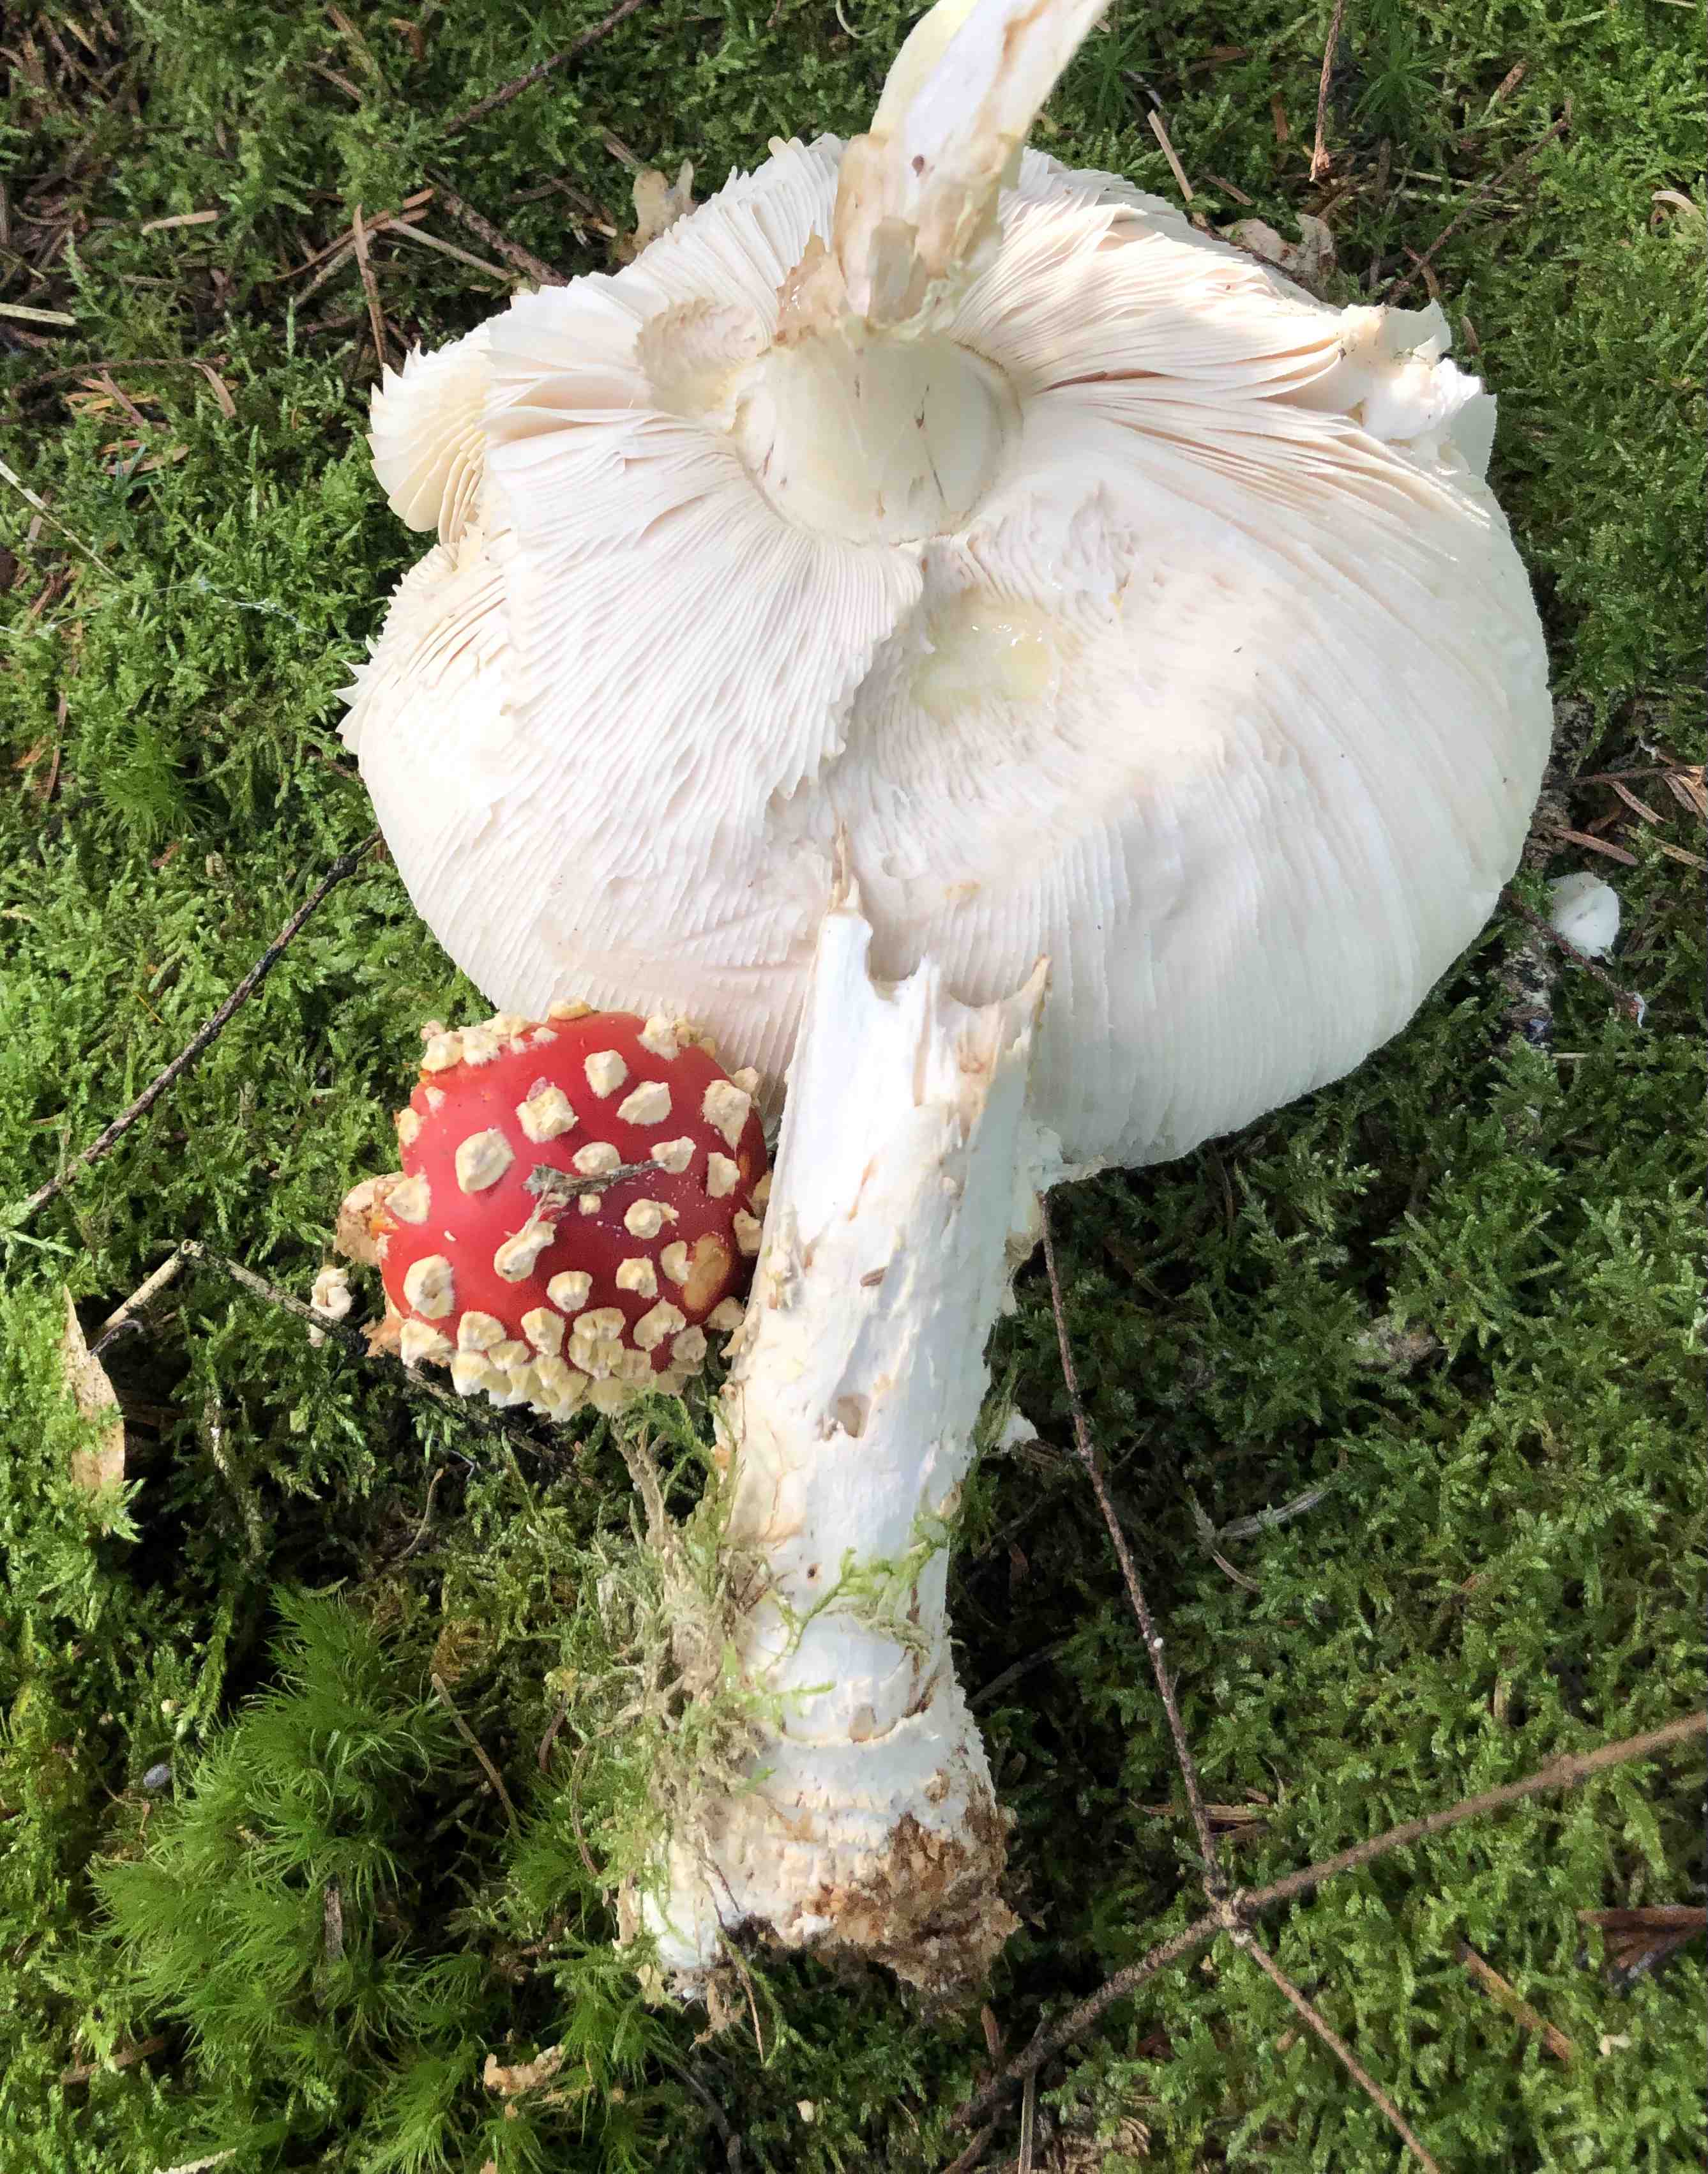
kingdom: Fungi
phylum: Basidiomycota
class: Agaricomycetes
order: Agaricales
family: Amanitaceae
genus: Amanita
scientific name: Amanita muscaria
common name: rød fluesvamp
